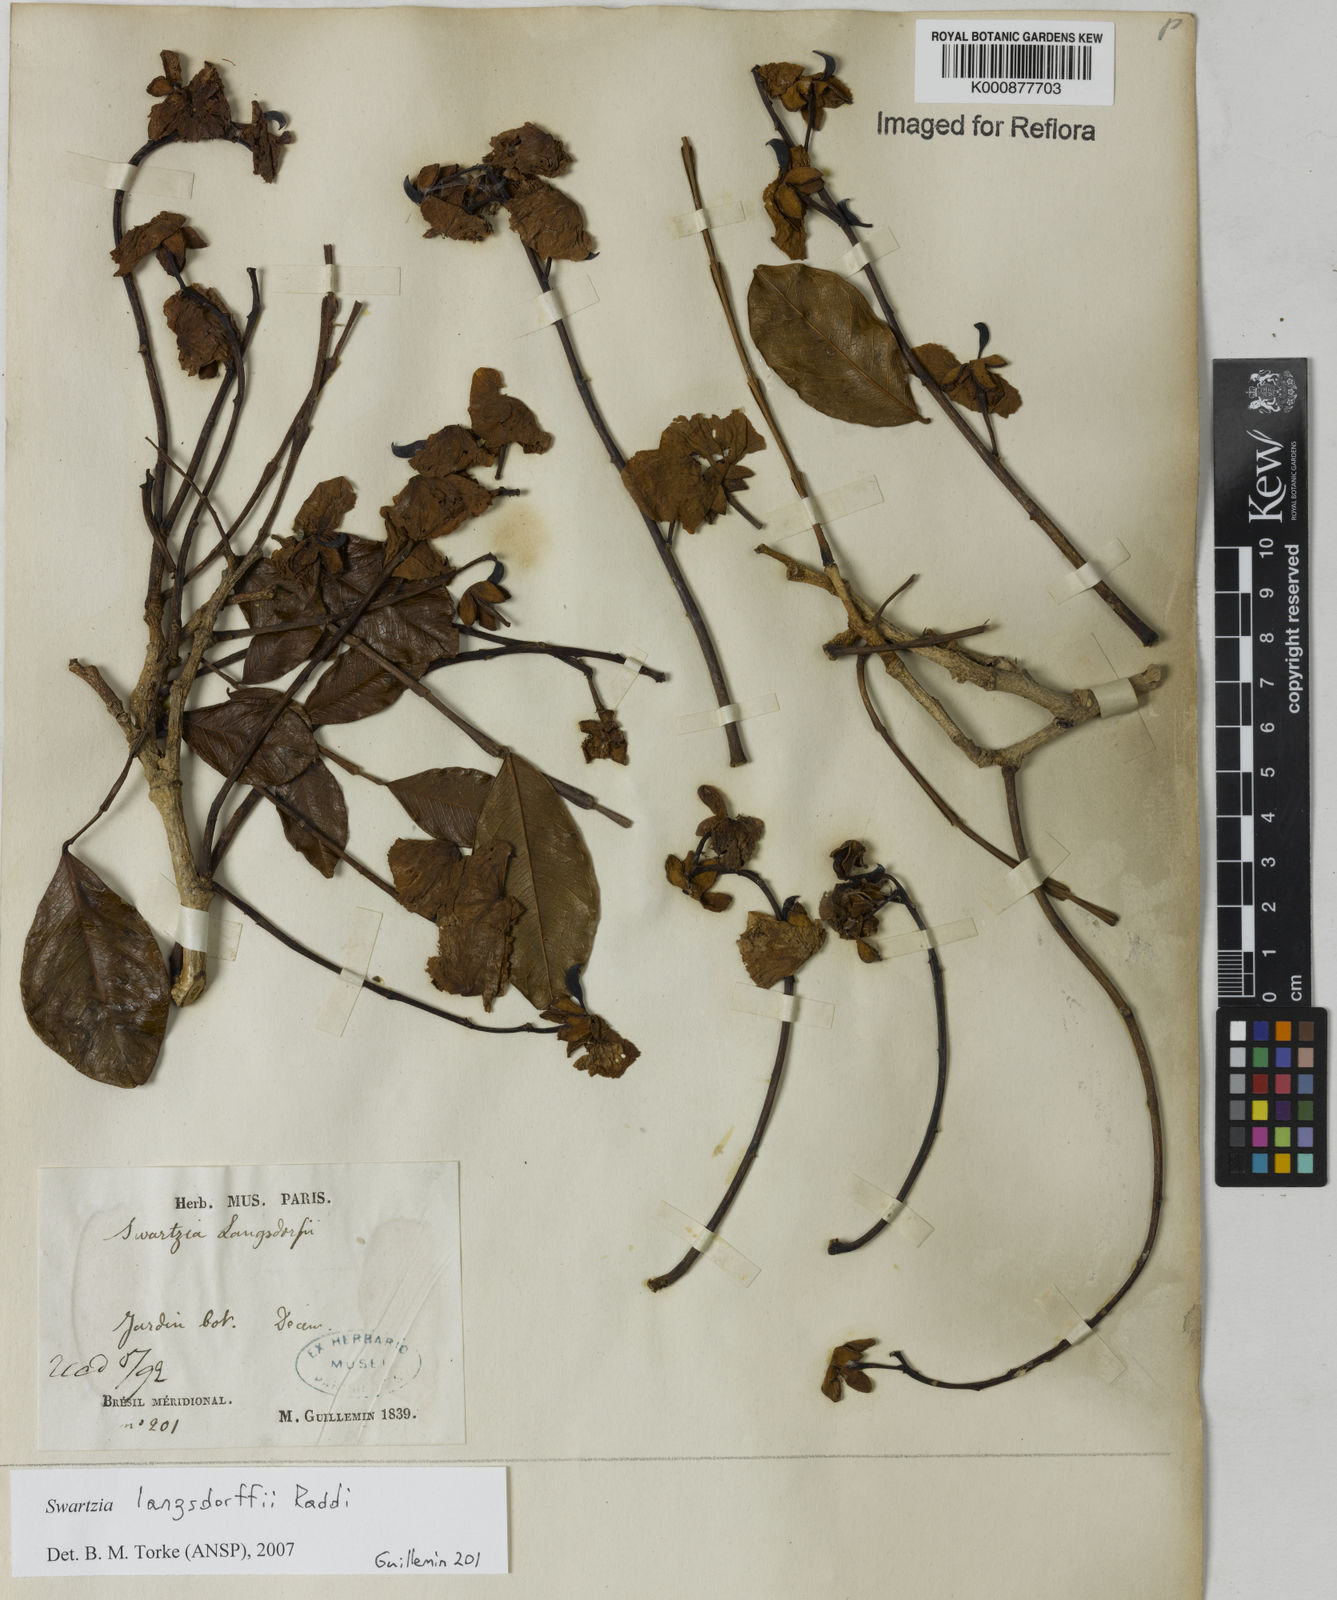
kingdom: Plantae
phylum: Tracheophyta
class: Magnoliopsida
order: Fabales
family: Fabaceae
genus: Swartzia
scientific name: Swartzia langsdorffii
